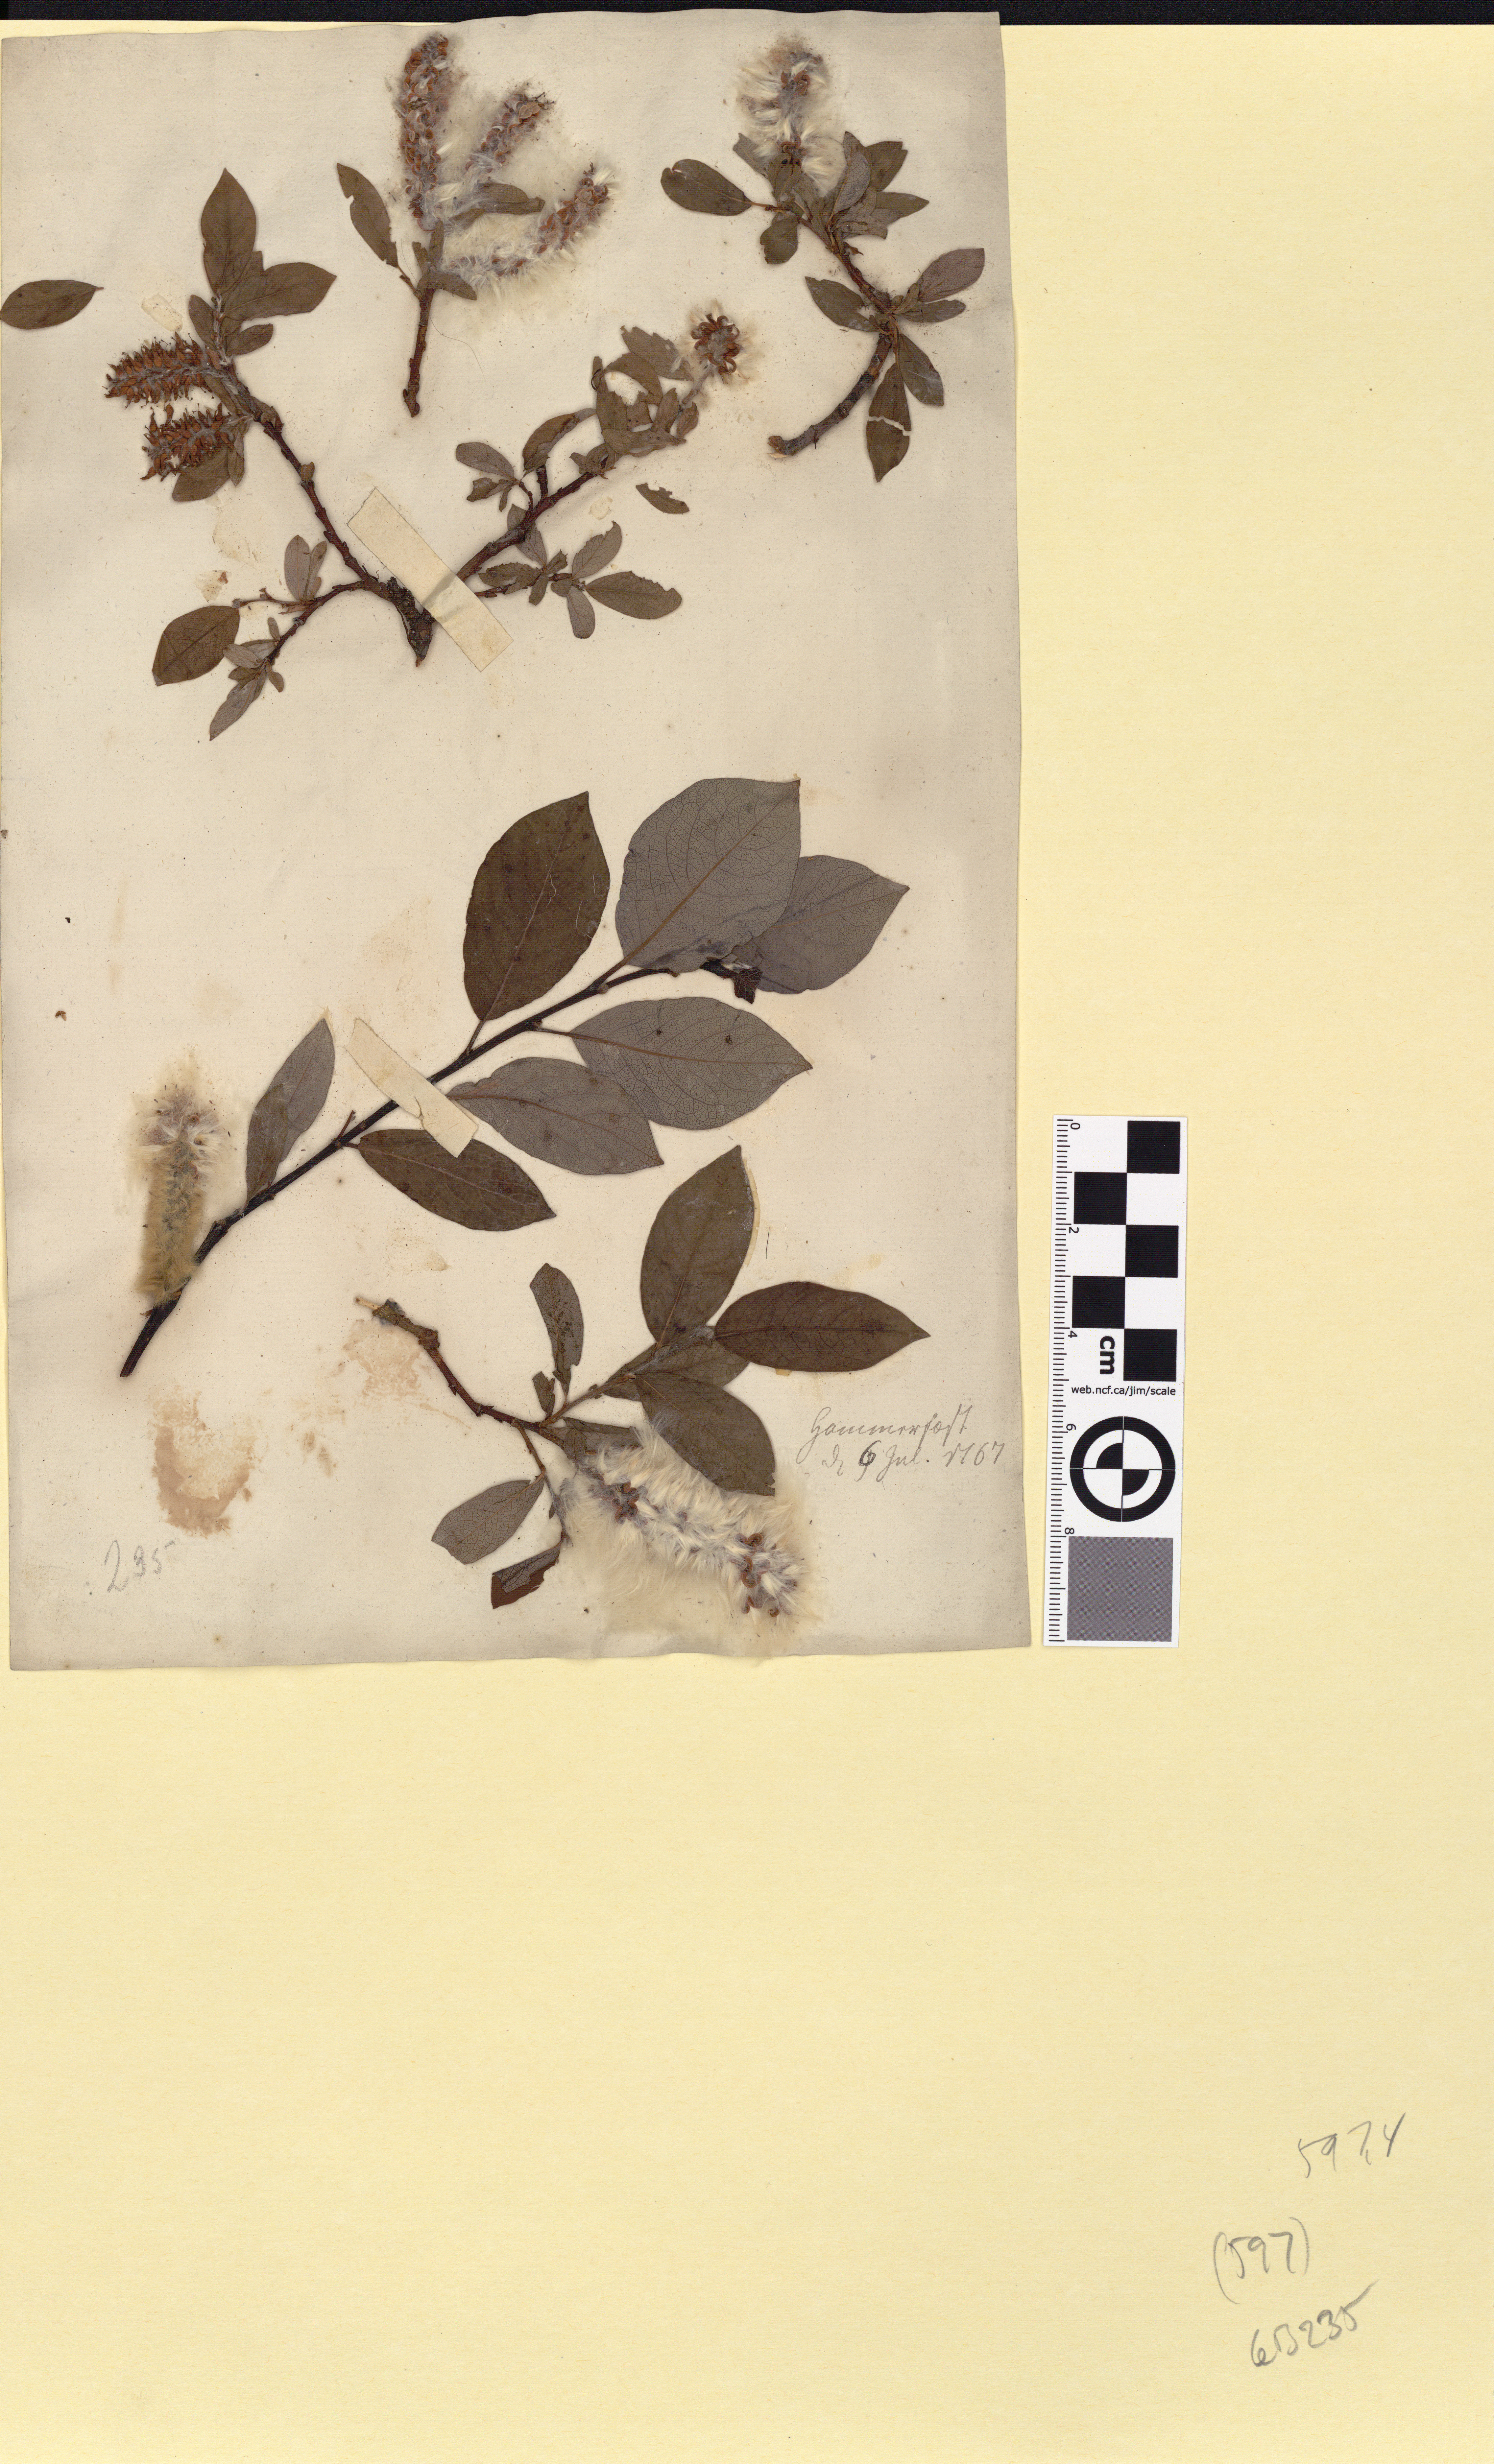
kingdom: Plantae
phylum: Tracheophyta
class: Magnoliopsida
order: Malpighiales
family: Salicaceae
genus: Salix
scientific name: Salix hastata
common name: Halberd willow
